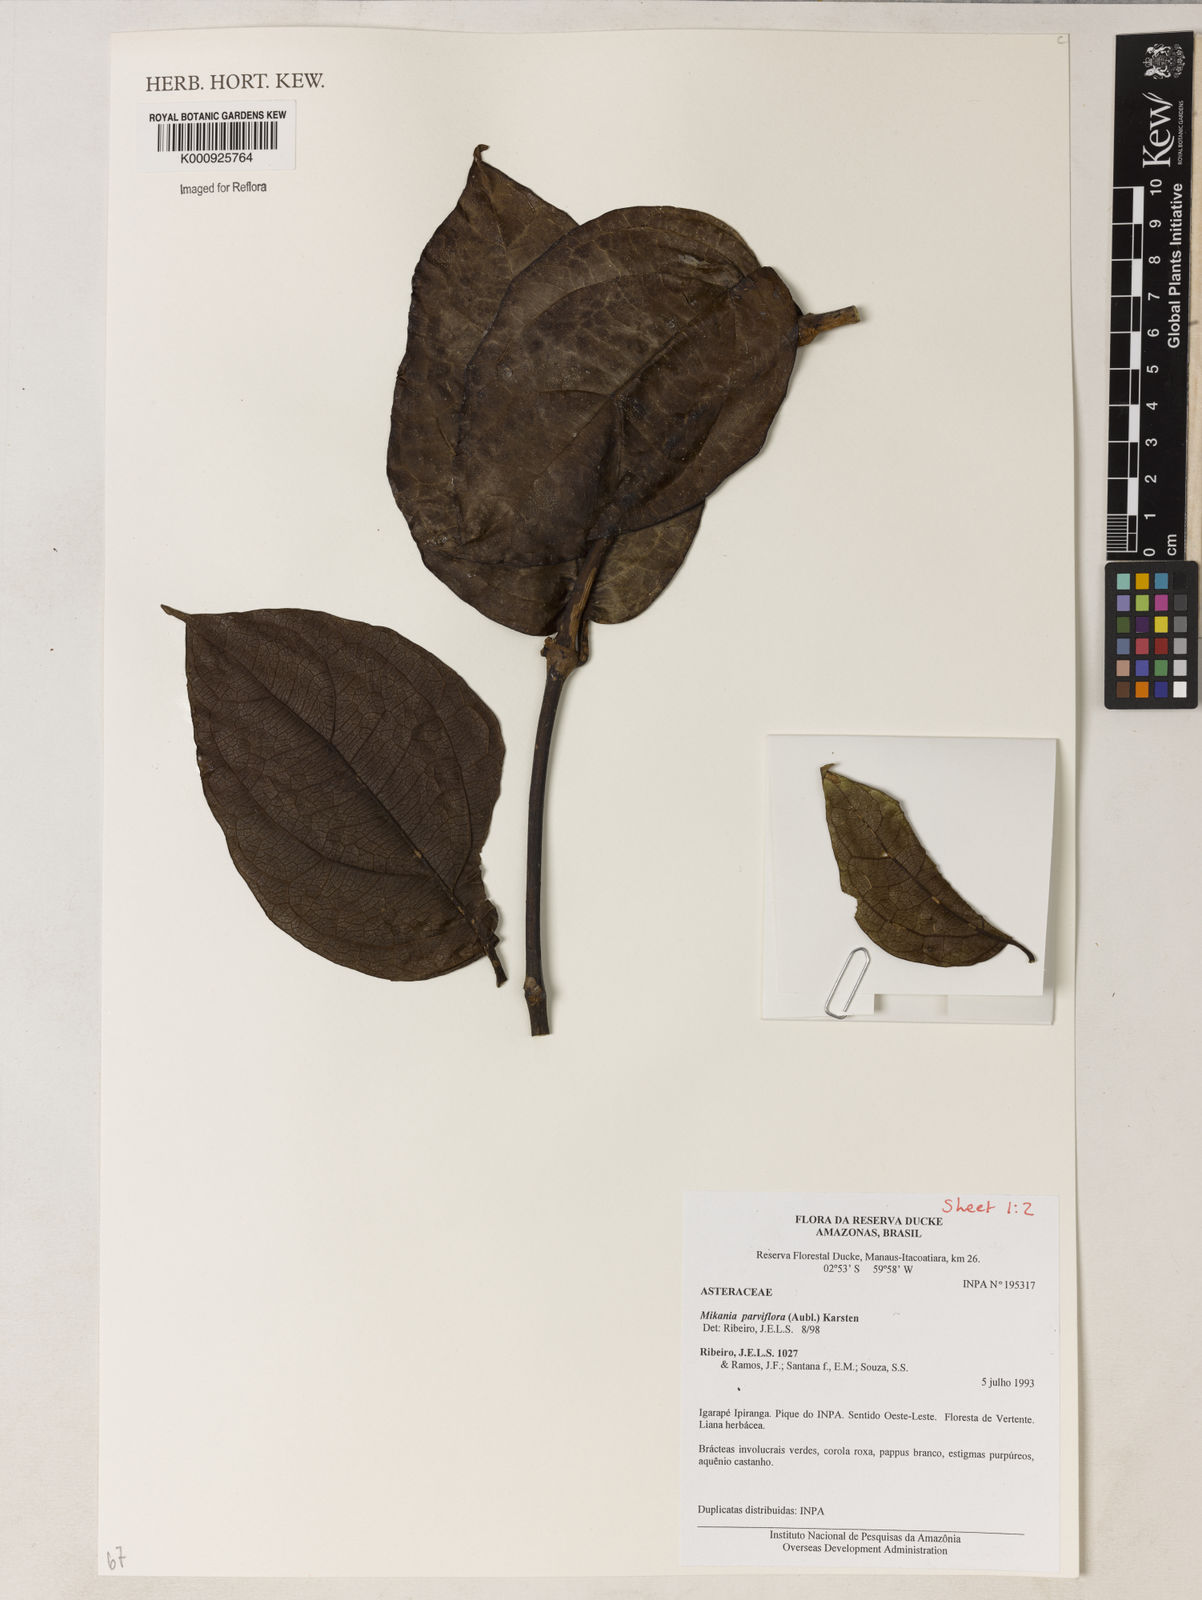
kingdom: Plantae
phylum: Tracheophyta
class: Magnoliopsida
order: Asterales
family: Asteraceae
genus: Mikania
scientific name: Mikania parvifolia
